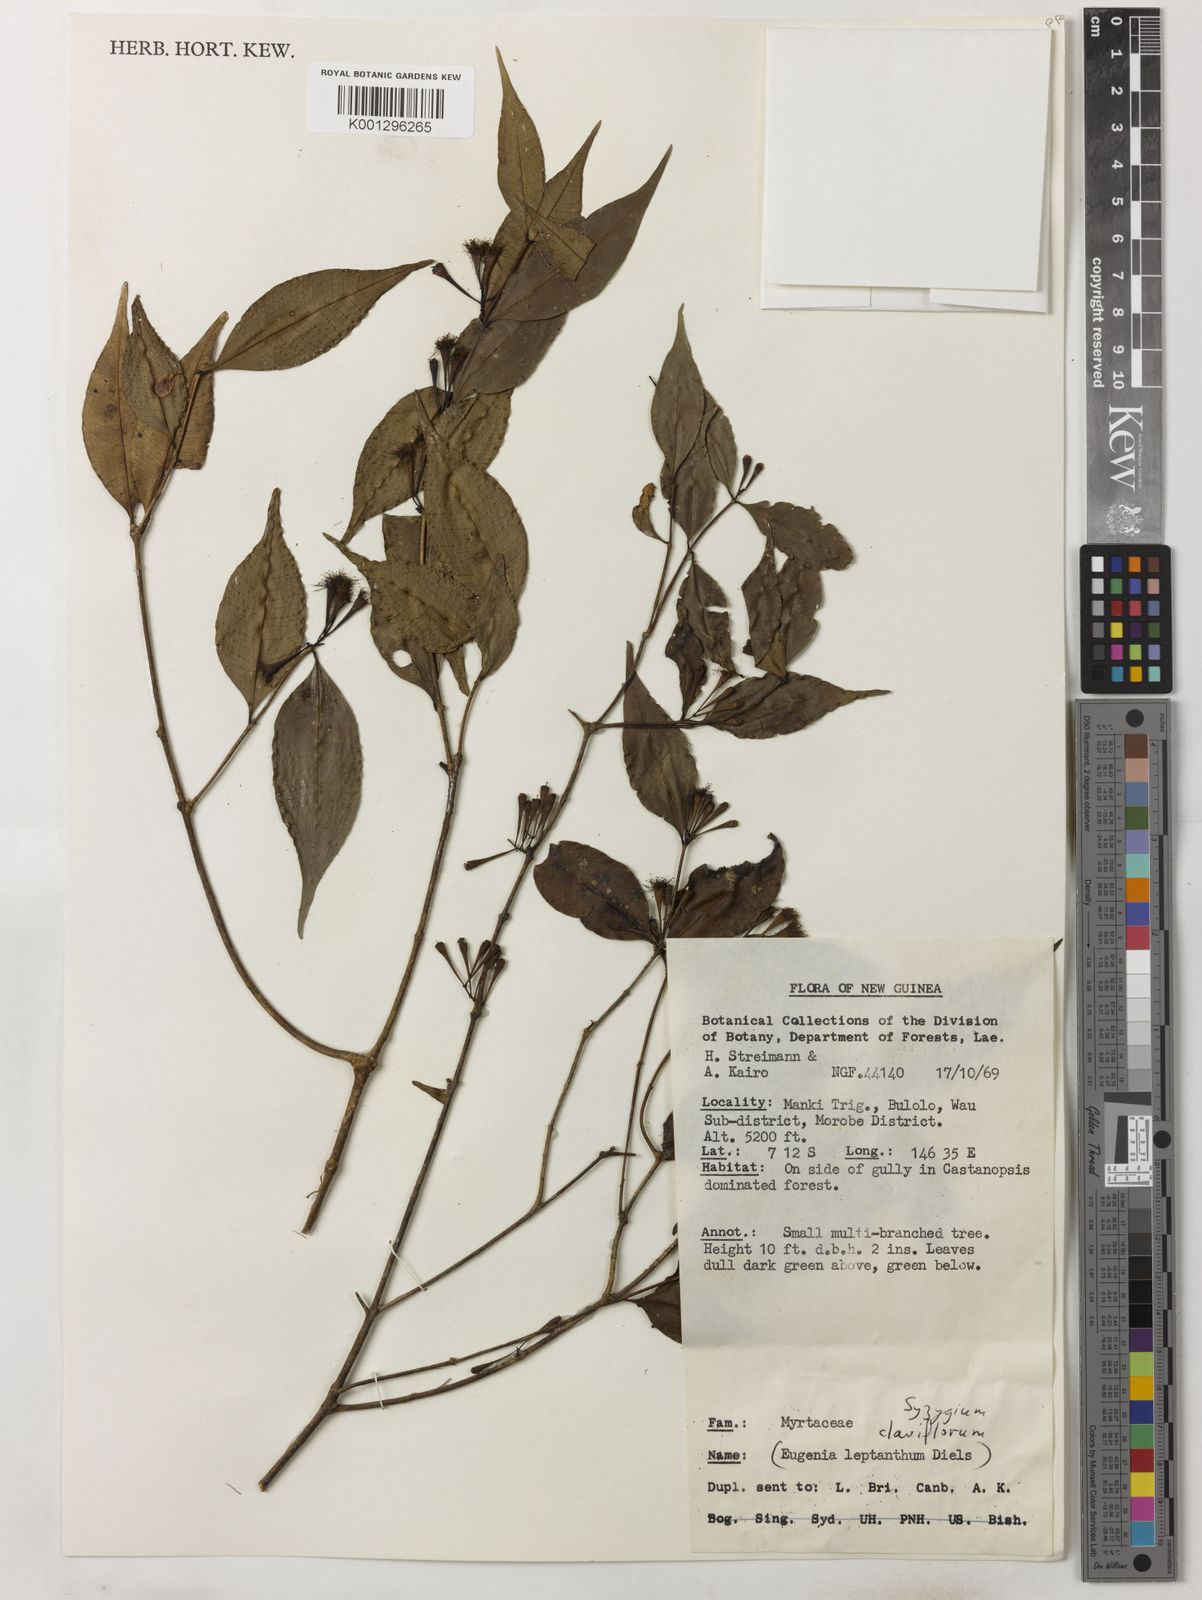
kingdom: Plantae
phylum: Tracheophyta
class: Magnoliopsida
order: Myrtales
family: Myrtaceae
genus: Syzygium
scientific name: Syzygium leptopodium
